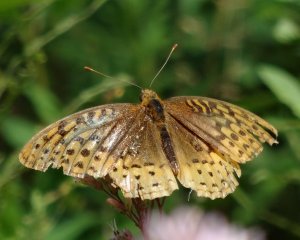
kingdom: Animalia
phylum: Arthropoda
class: Insecta
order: Lepidoptera
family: Nymphalidae
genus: Speyeria
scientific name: Speyeria cybele
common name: Great Spangled Fritillary
